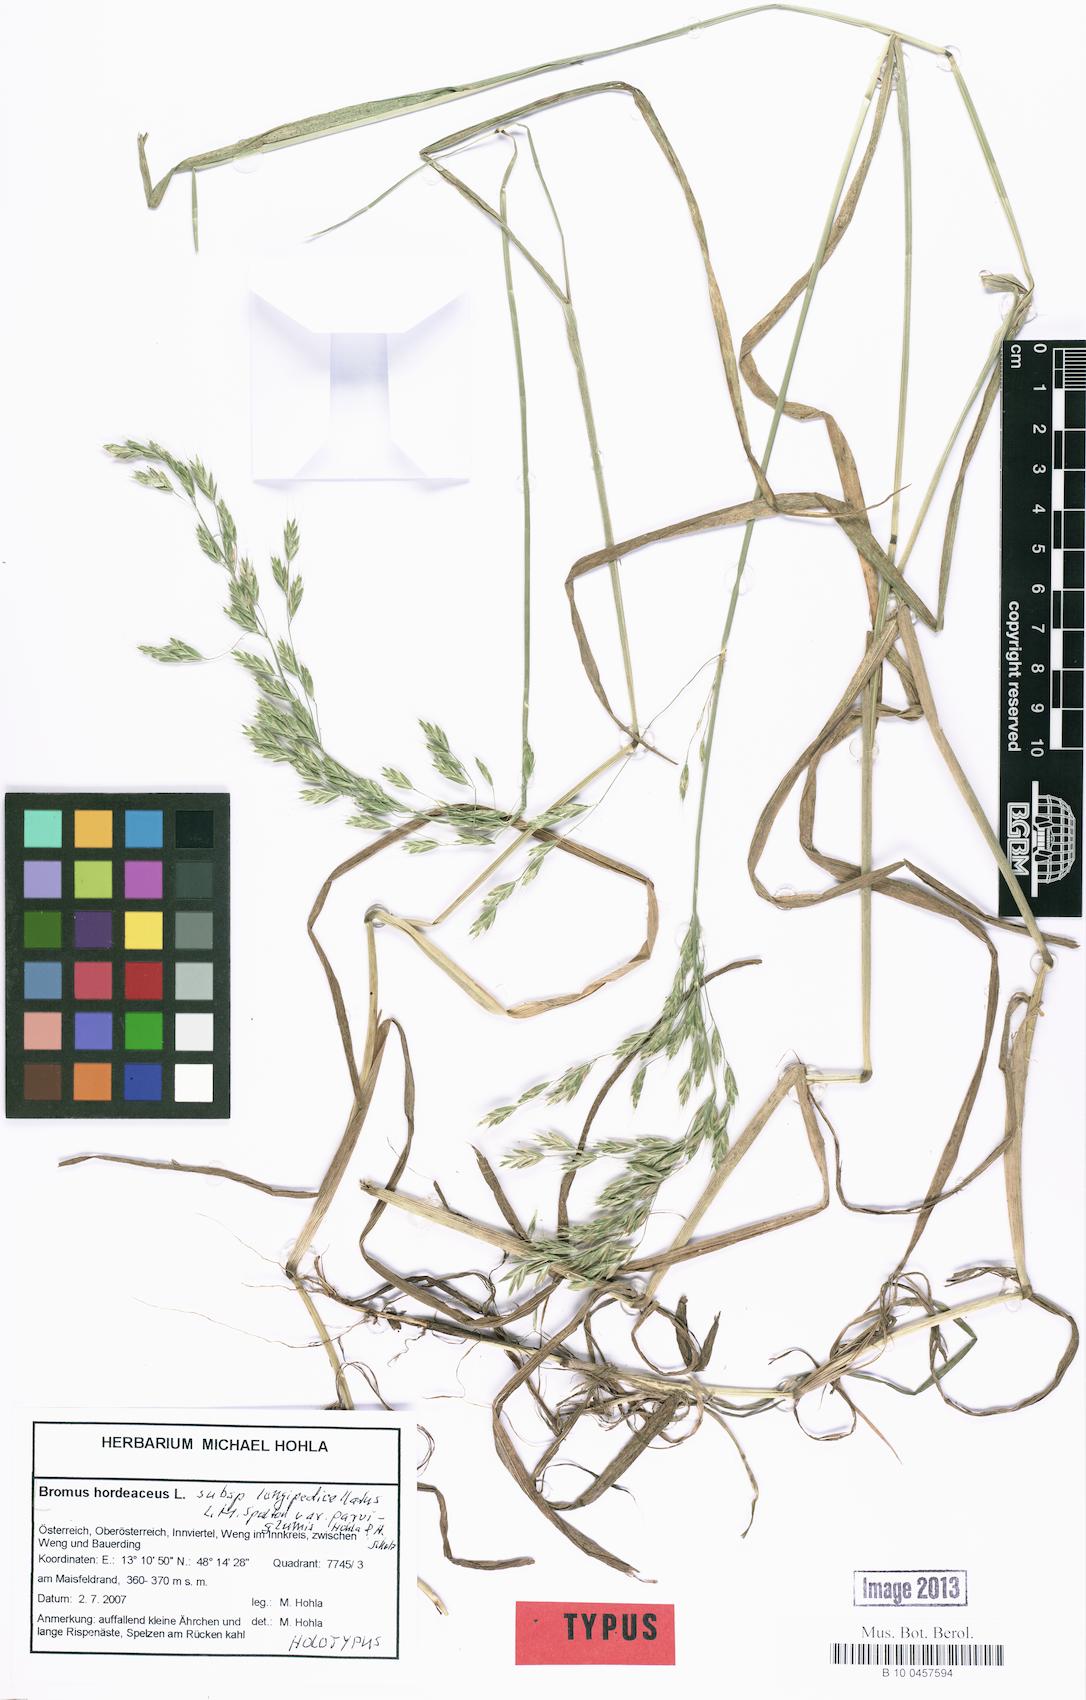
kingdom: Plantae
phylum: Tracheophyta
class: Liliopsida
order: Poales
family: Poaceae
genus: Bromus
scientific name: Bromus hordeaceus
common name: Soft brome
